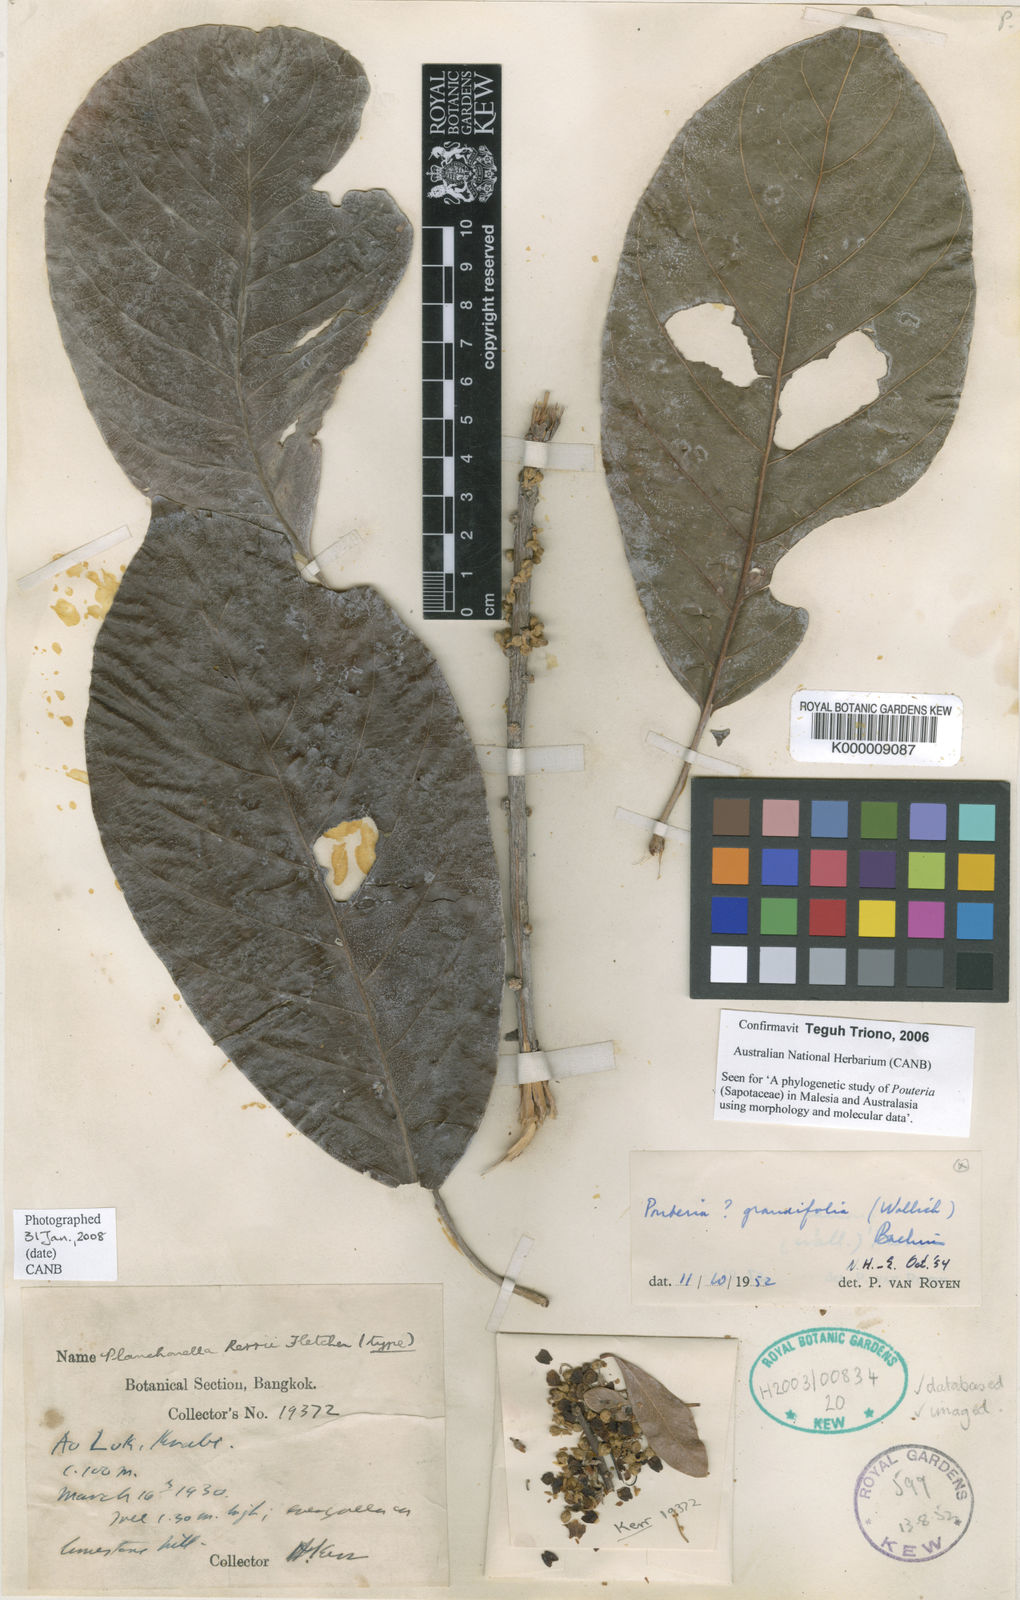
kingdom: Plantae
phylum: Tracheophyta
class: Magnoliopsida
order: Ericales
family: Sapotaceae
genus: Planchonella
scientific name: Planchonella grandifolia
